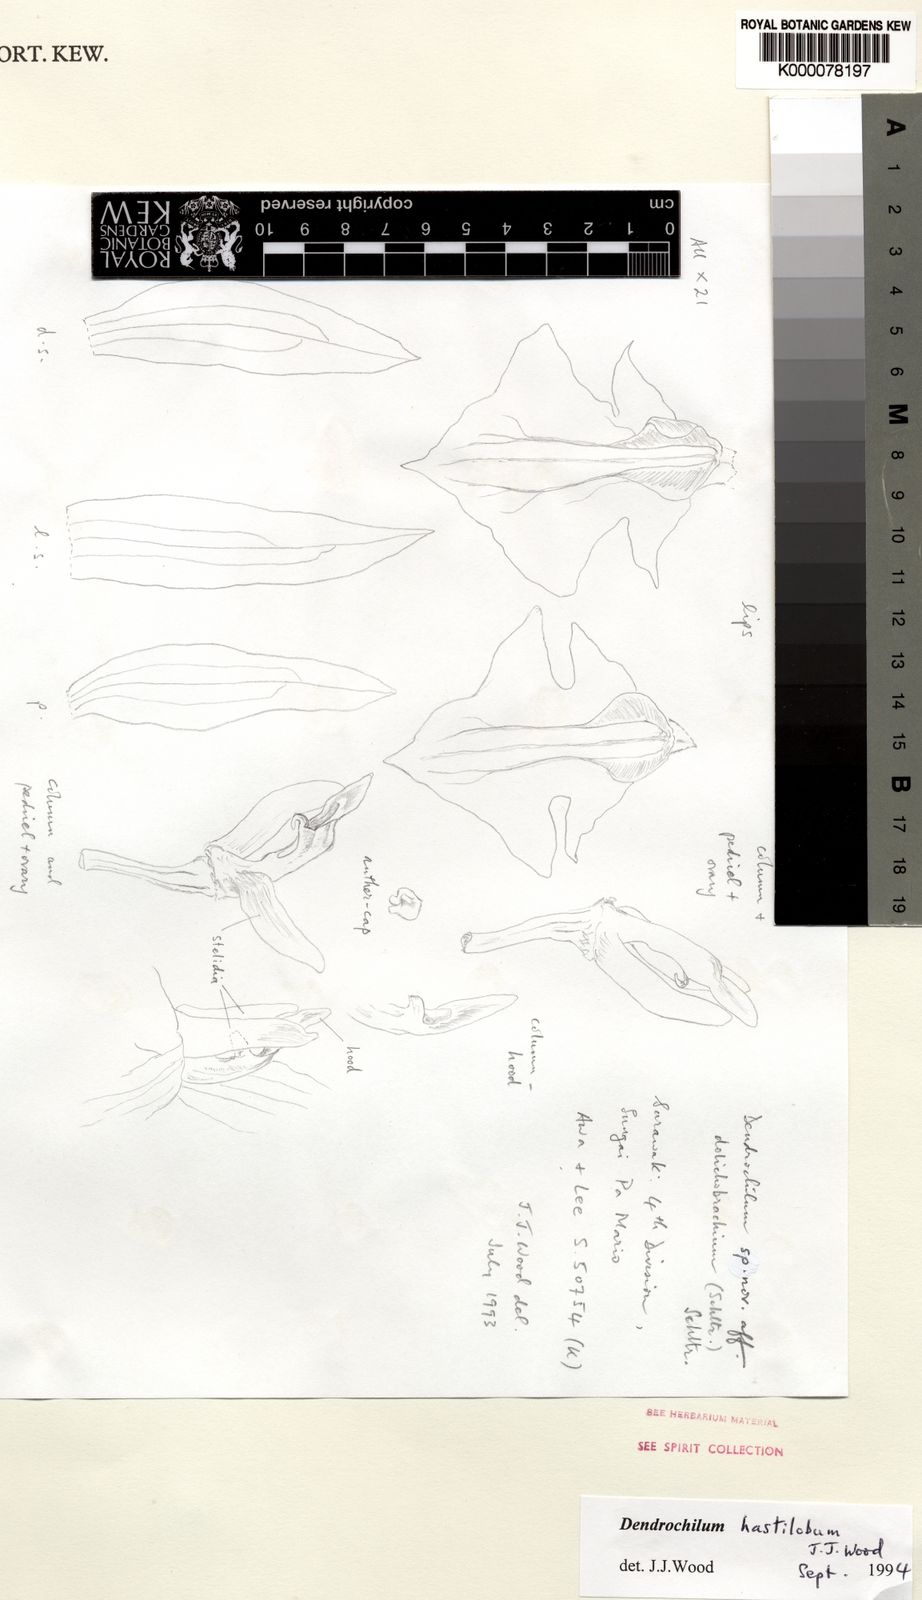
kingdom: Plantae
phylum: Tracheophyta
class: Liliopsida
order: Asparagales
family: Orchidaceae
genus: Coelogyne
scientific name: Coelogyne hastiloba
